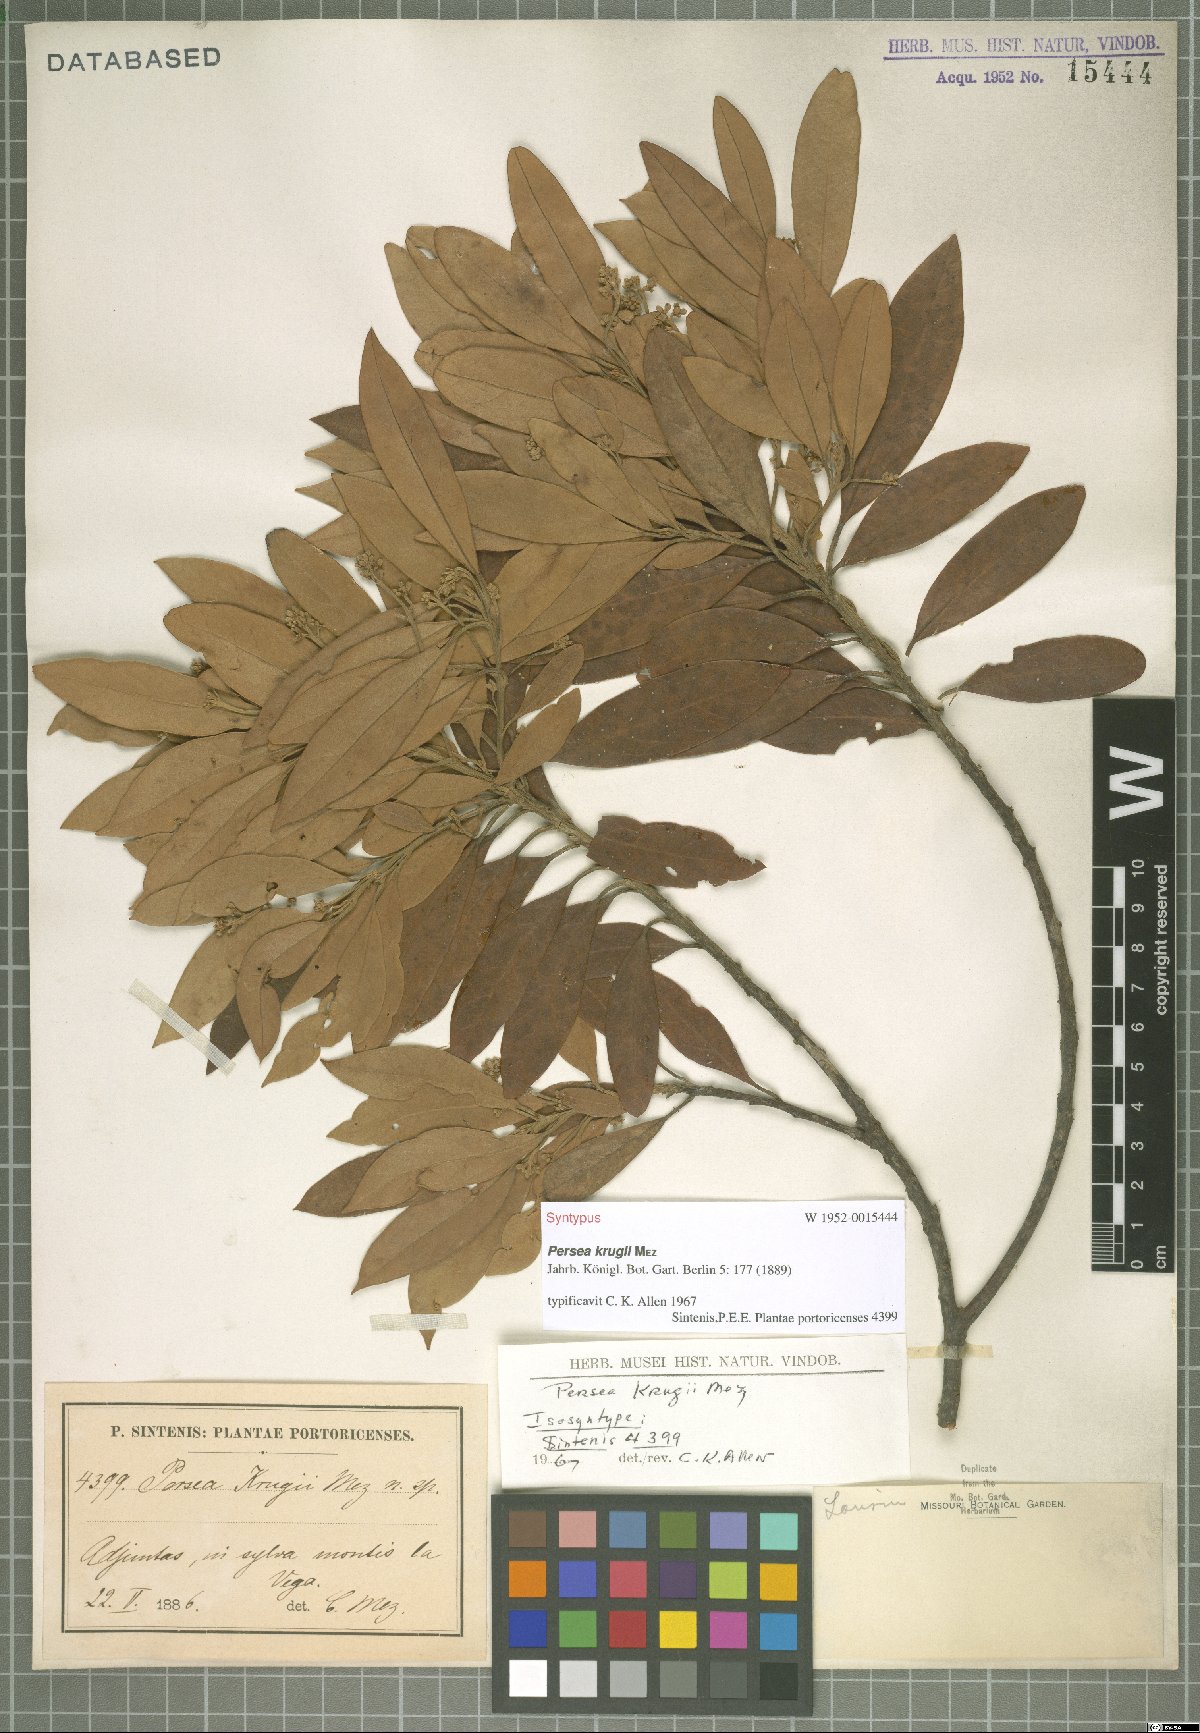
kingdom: Plantae
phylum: Tracheophyta
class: Magnoliopsida
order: Laurales
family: Lauraceae
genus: Persea
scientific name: Persea krugii
